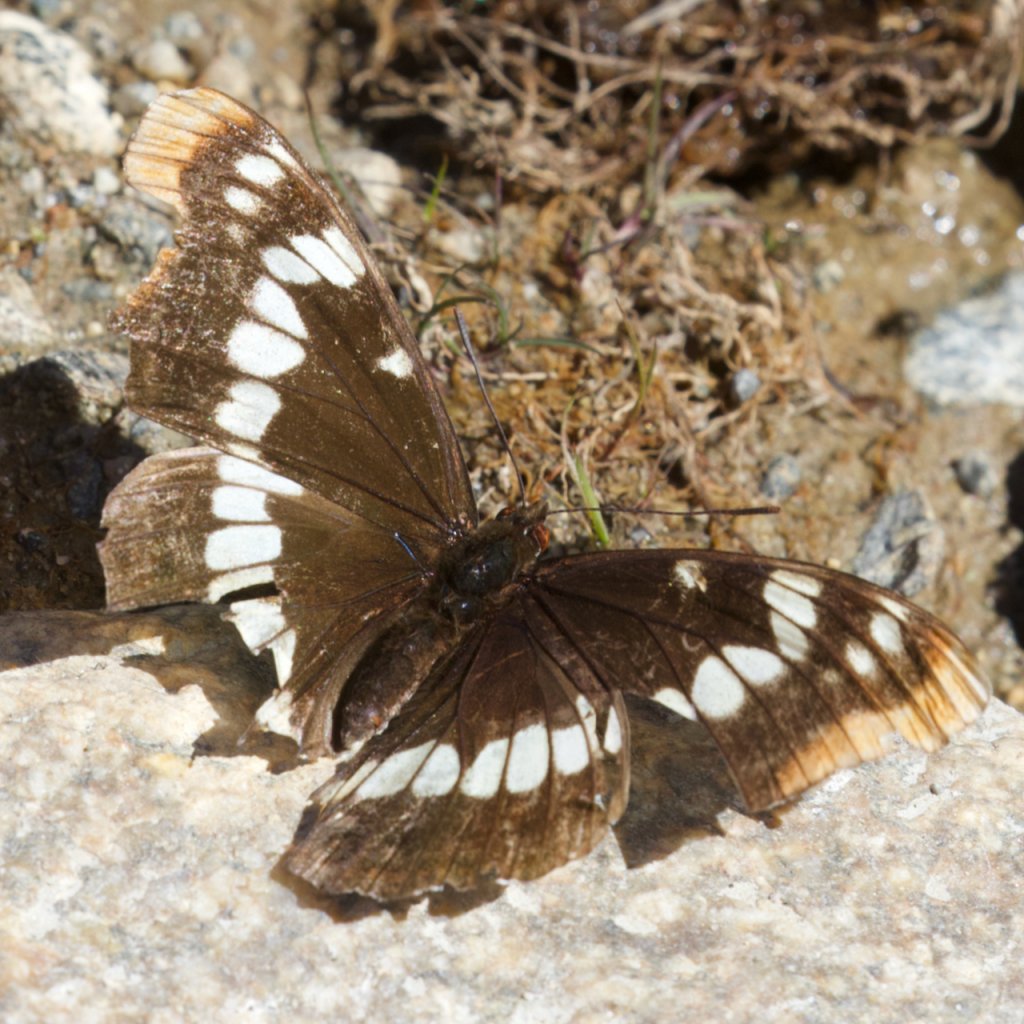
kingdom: Animalia
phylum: Arthropoda
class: Insecta
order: Lepidoptera
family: Nymphalidae
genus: Limenitis
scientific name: Limenitis lorquini
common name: Lorquin's Admiral
